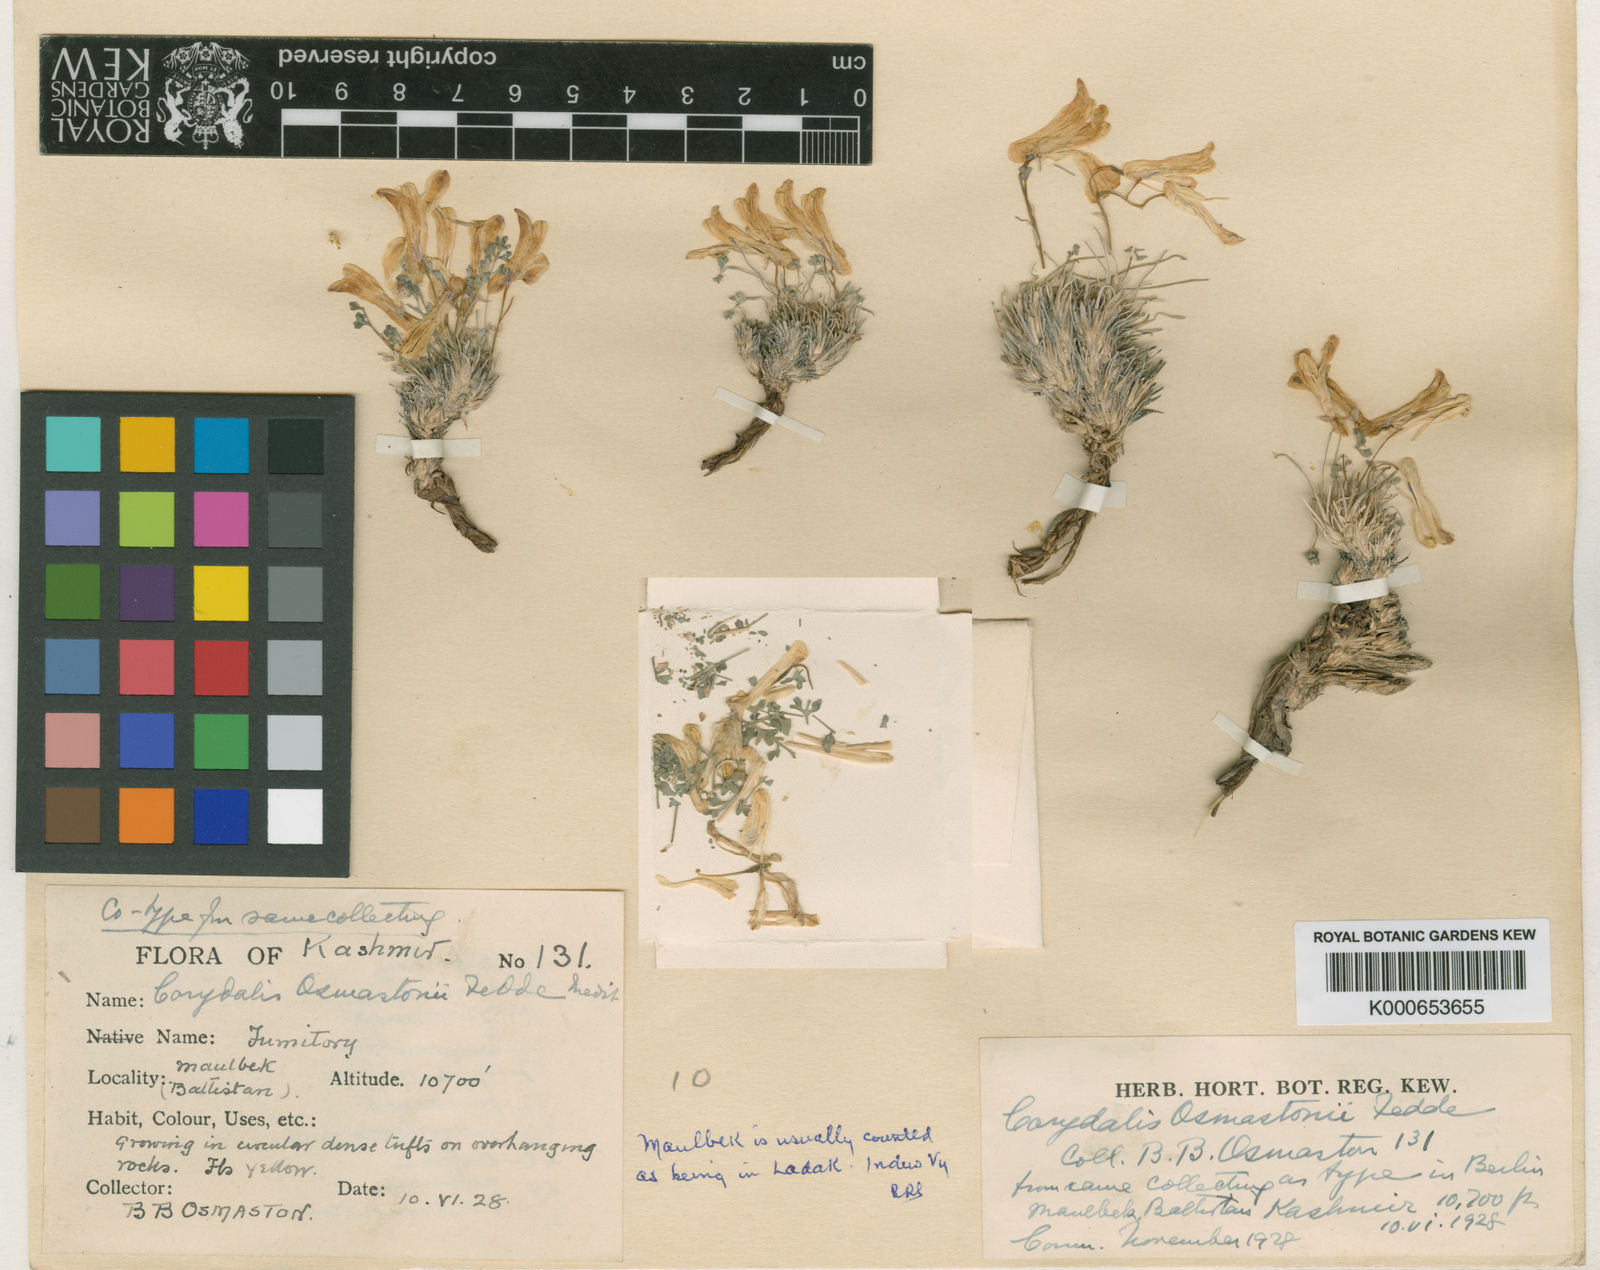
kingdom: Plantae
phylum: Tracheophyta
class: Magnoliopsida
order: Ranunculales
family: Papaveraceae
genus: Corydalis
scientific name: Corydalis mira
